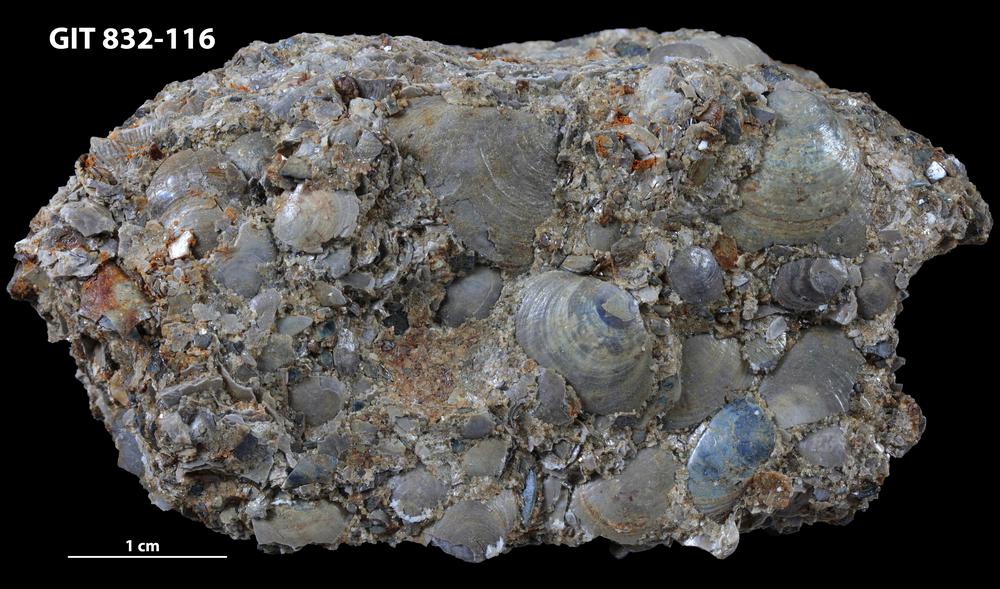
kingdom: Animalia
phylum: Brachiopoda
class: Lingulata
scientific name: Lingulata
